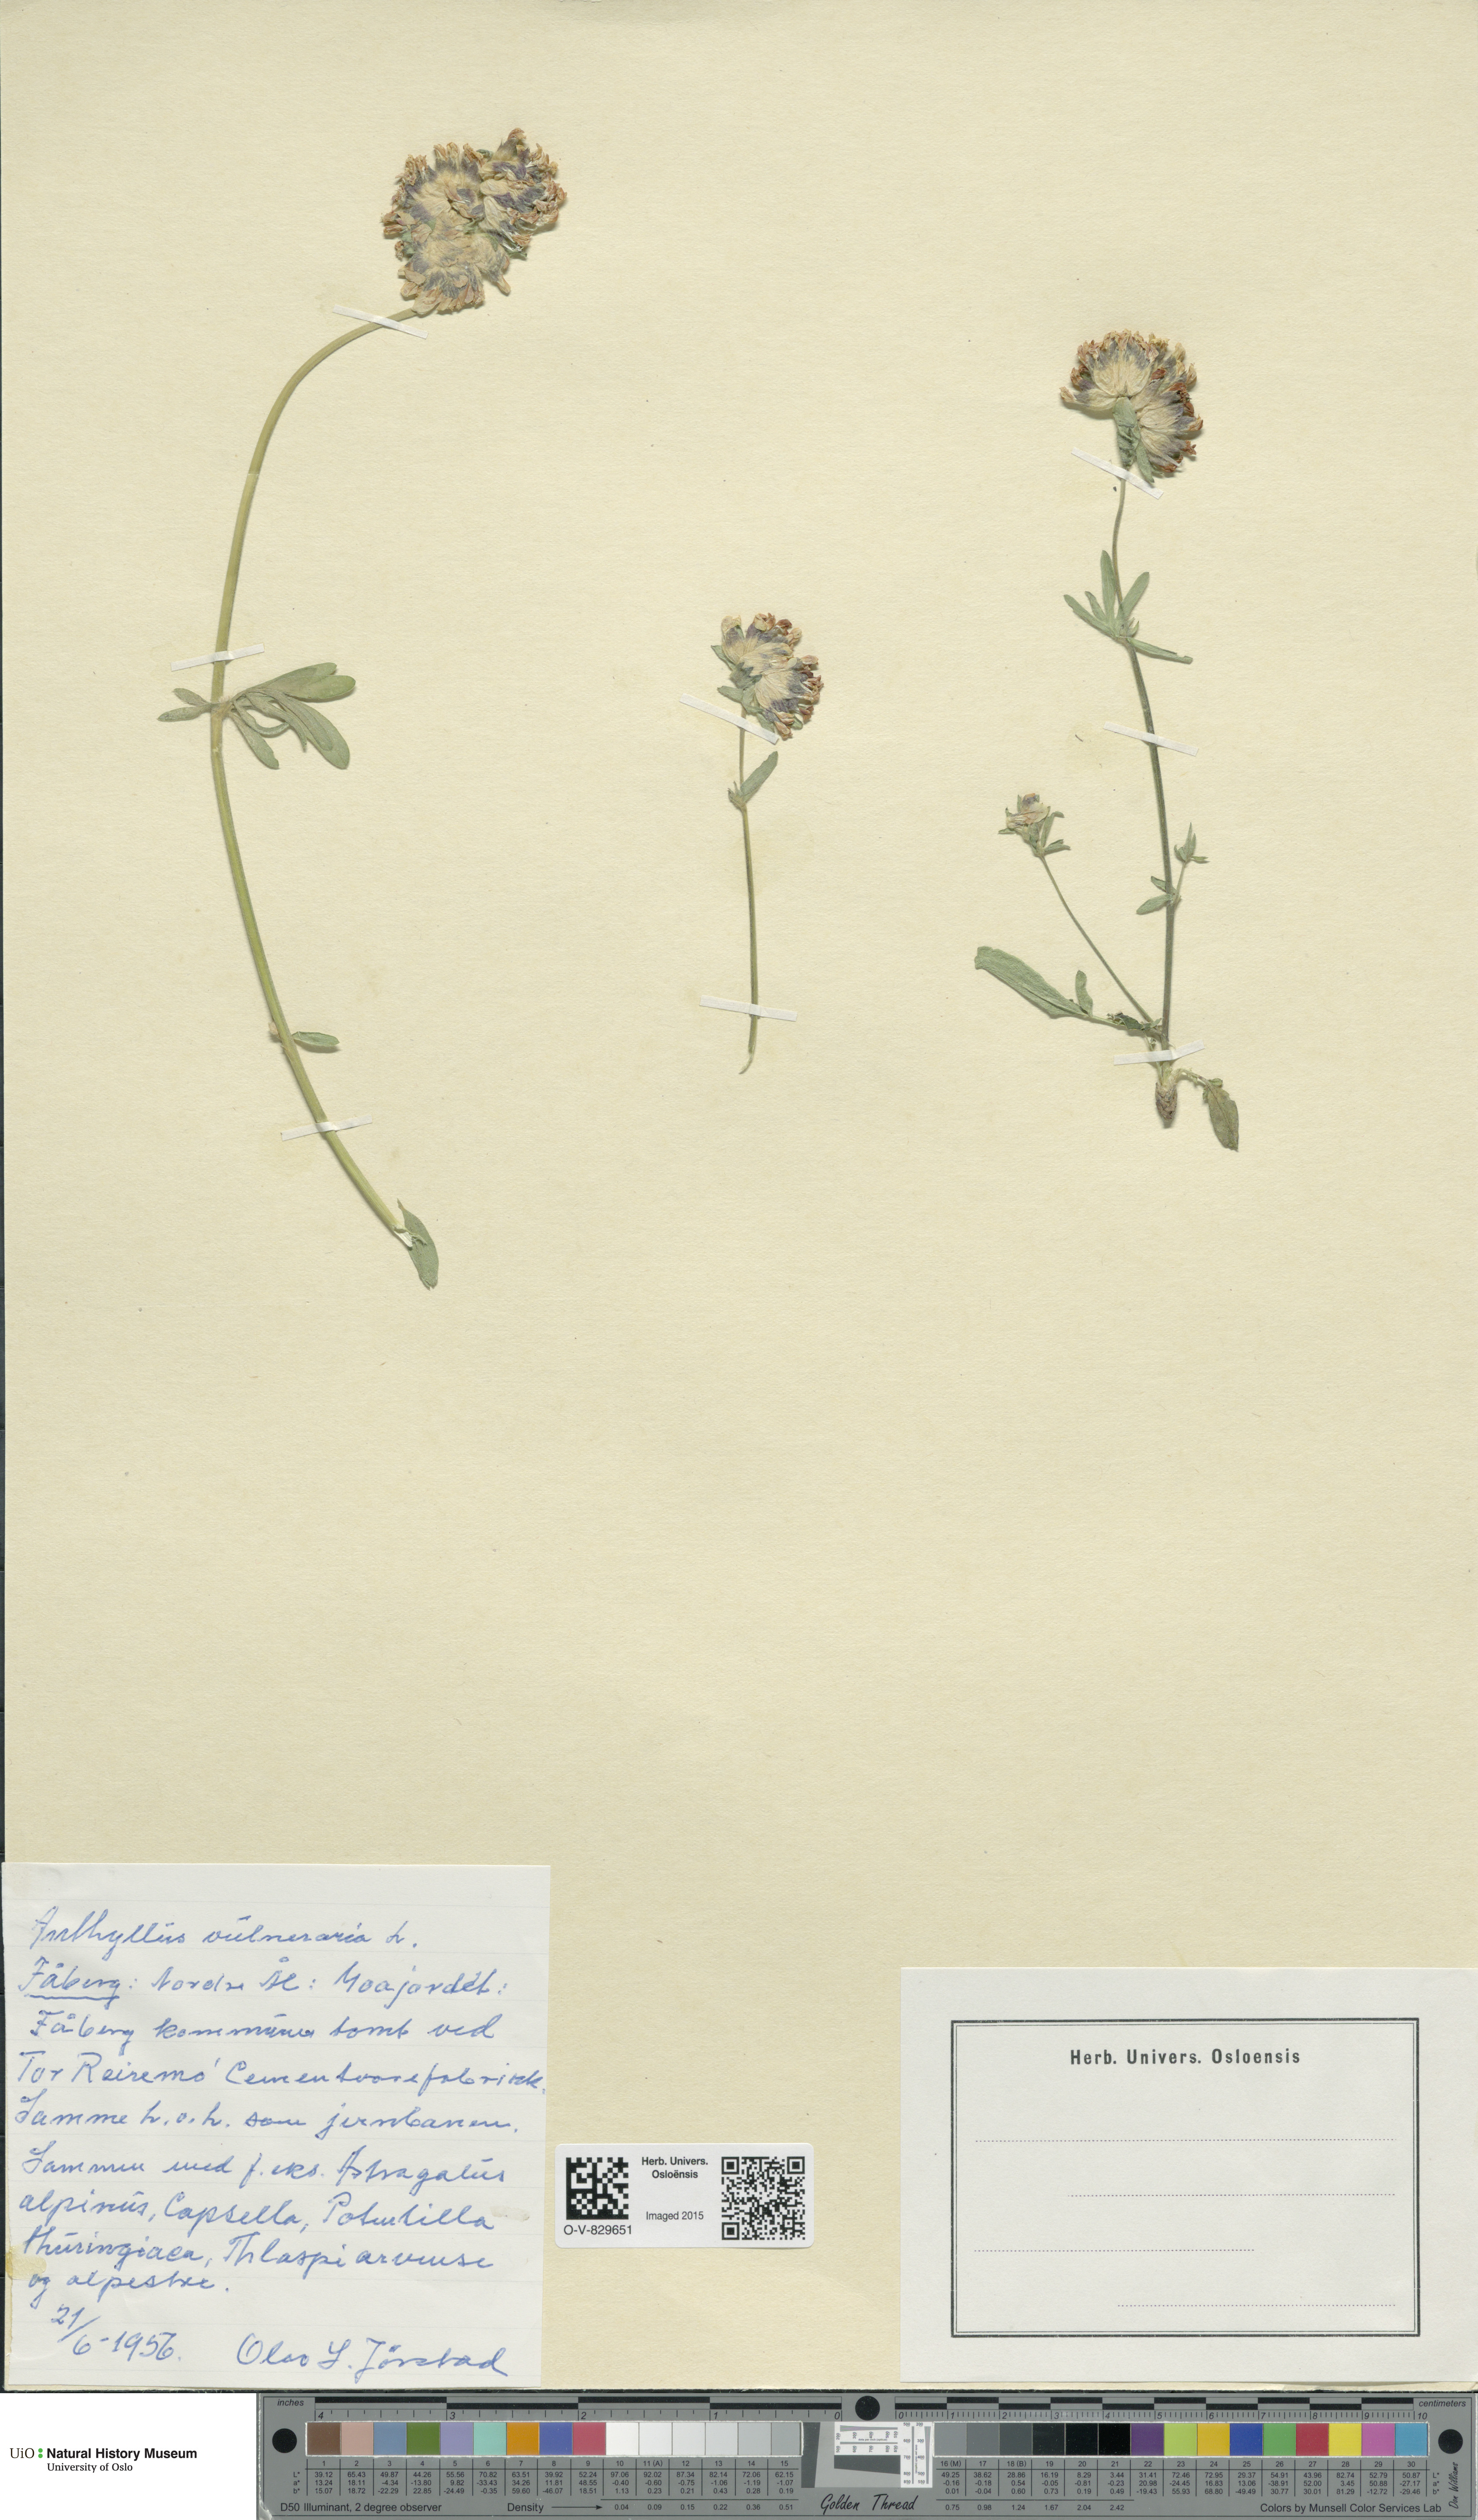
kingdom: Plantae
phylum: Tracheophyta
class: Magnoliopsida
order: Fabales
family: Fabaceae
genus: Anthyllis
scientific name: Anthyllis vulneraria
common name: Kidney vetch
